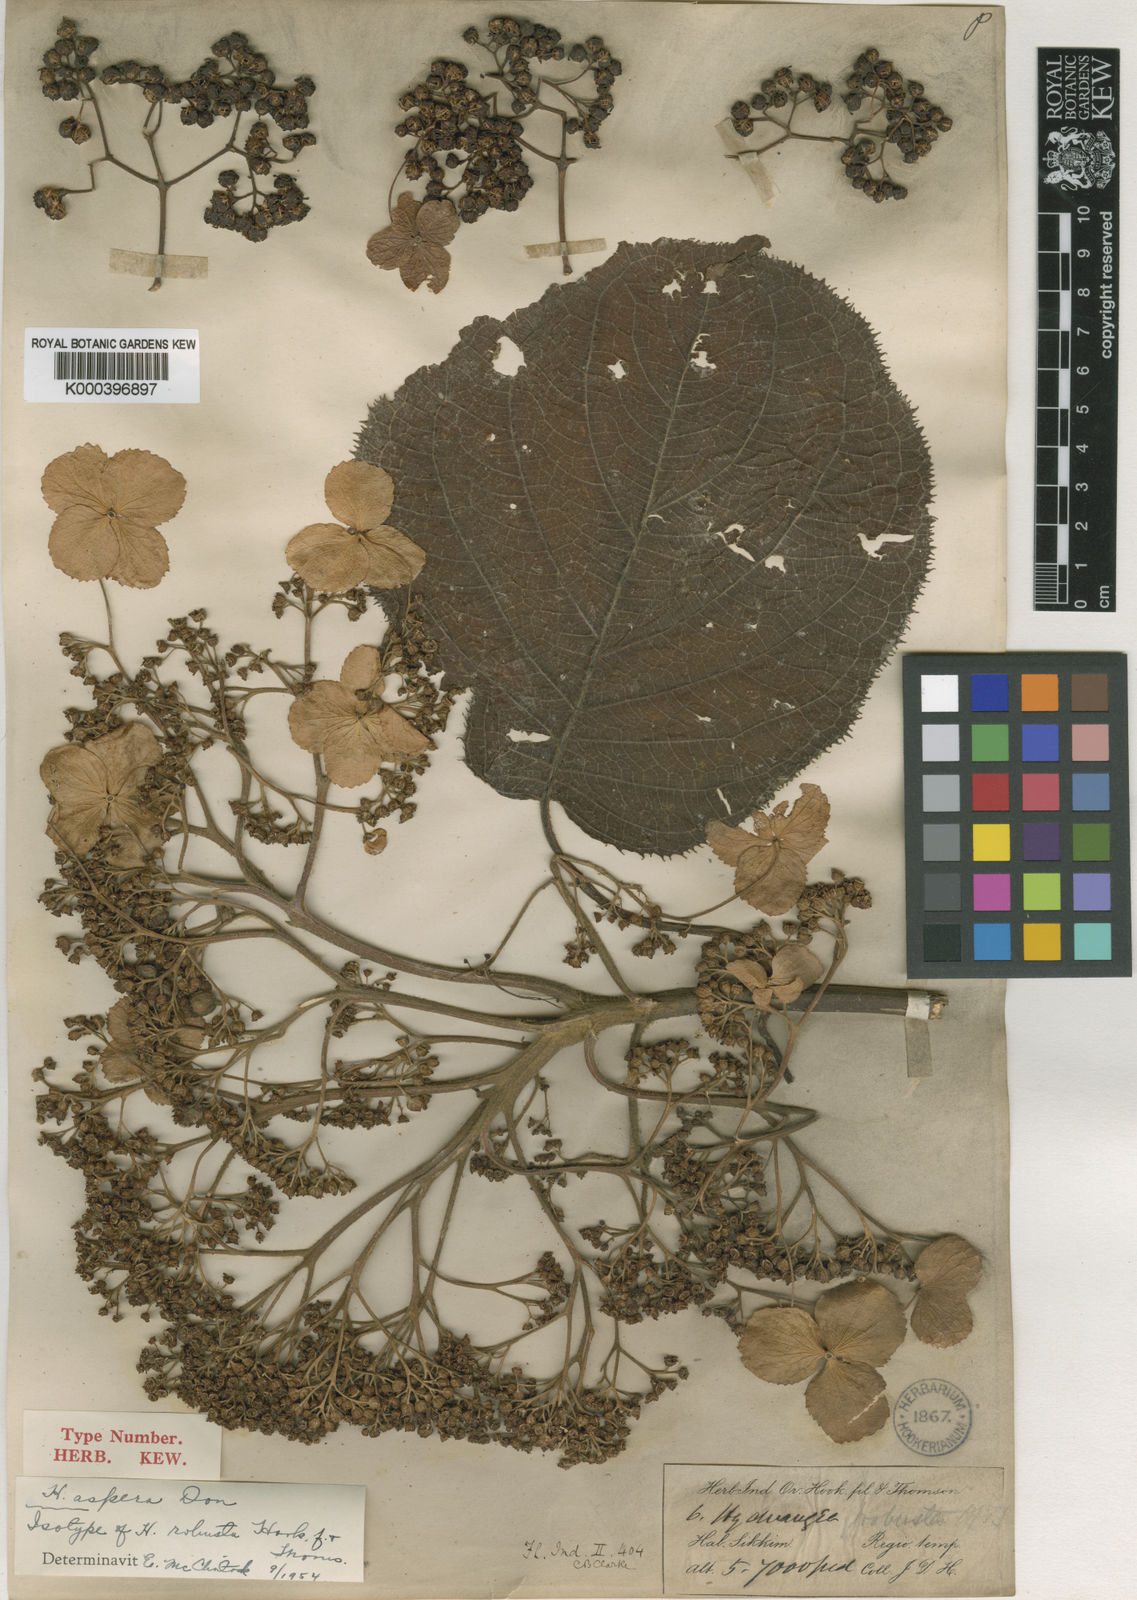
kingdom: Plantae
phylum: Tracheophyta
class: Magnoliopsida
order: Cornales
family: Hydrangeaceae
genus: Hydrangea
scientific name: Hydrangea aspera
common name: Rough-leaf hydrangea
